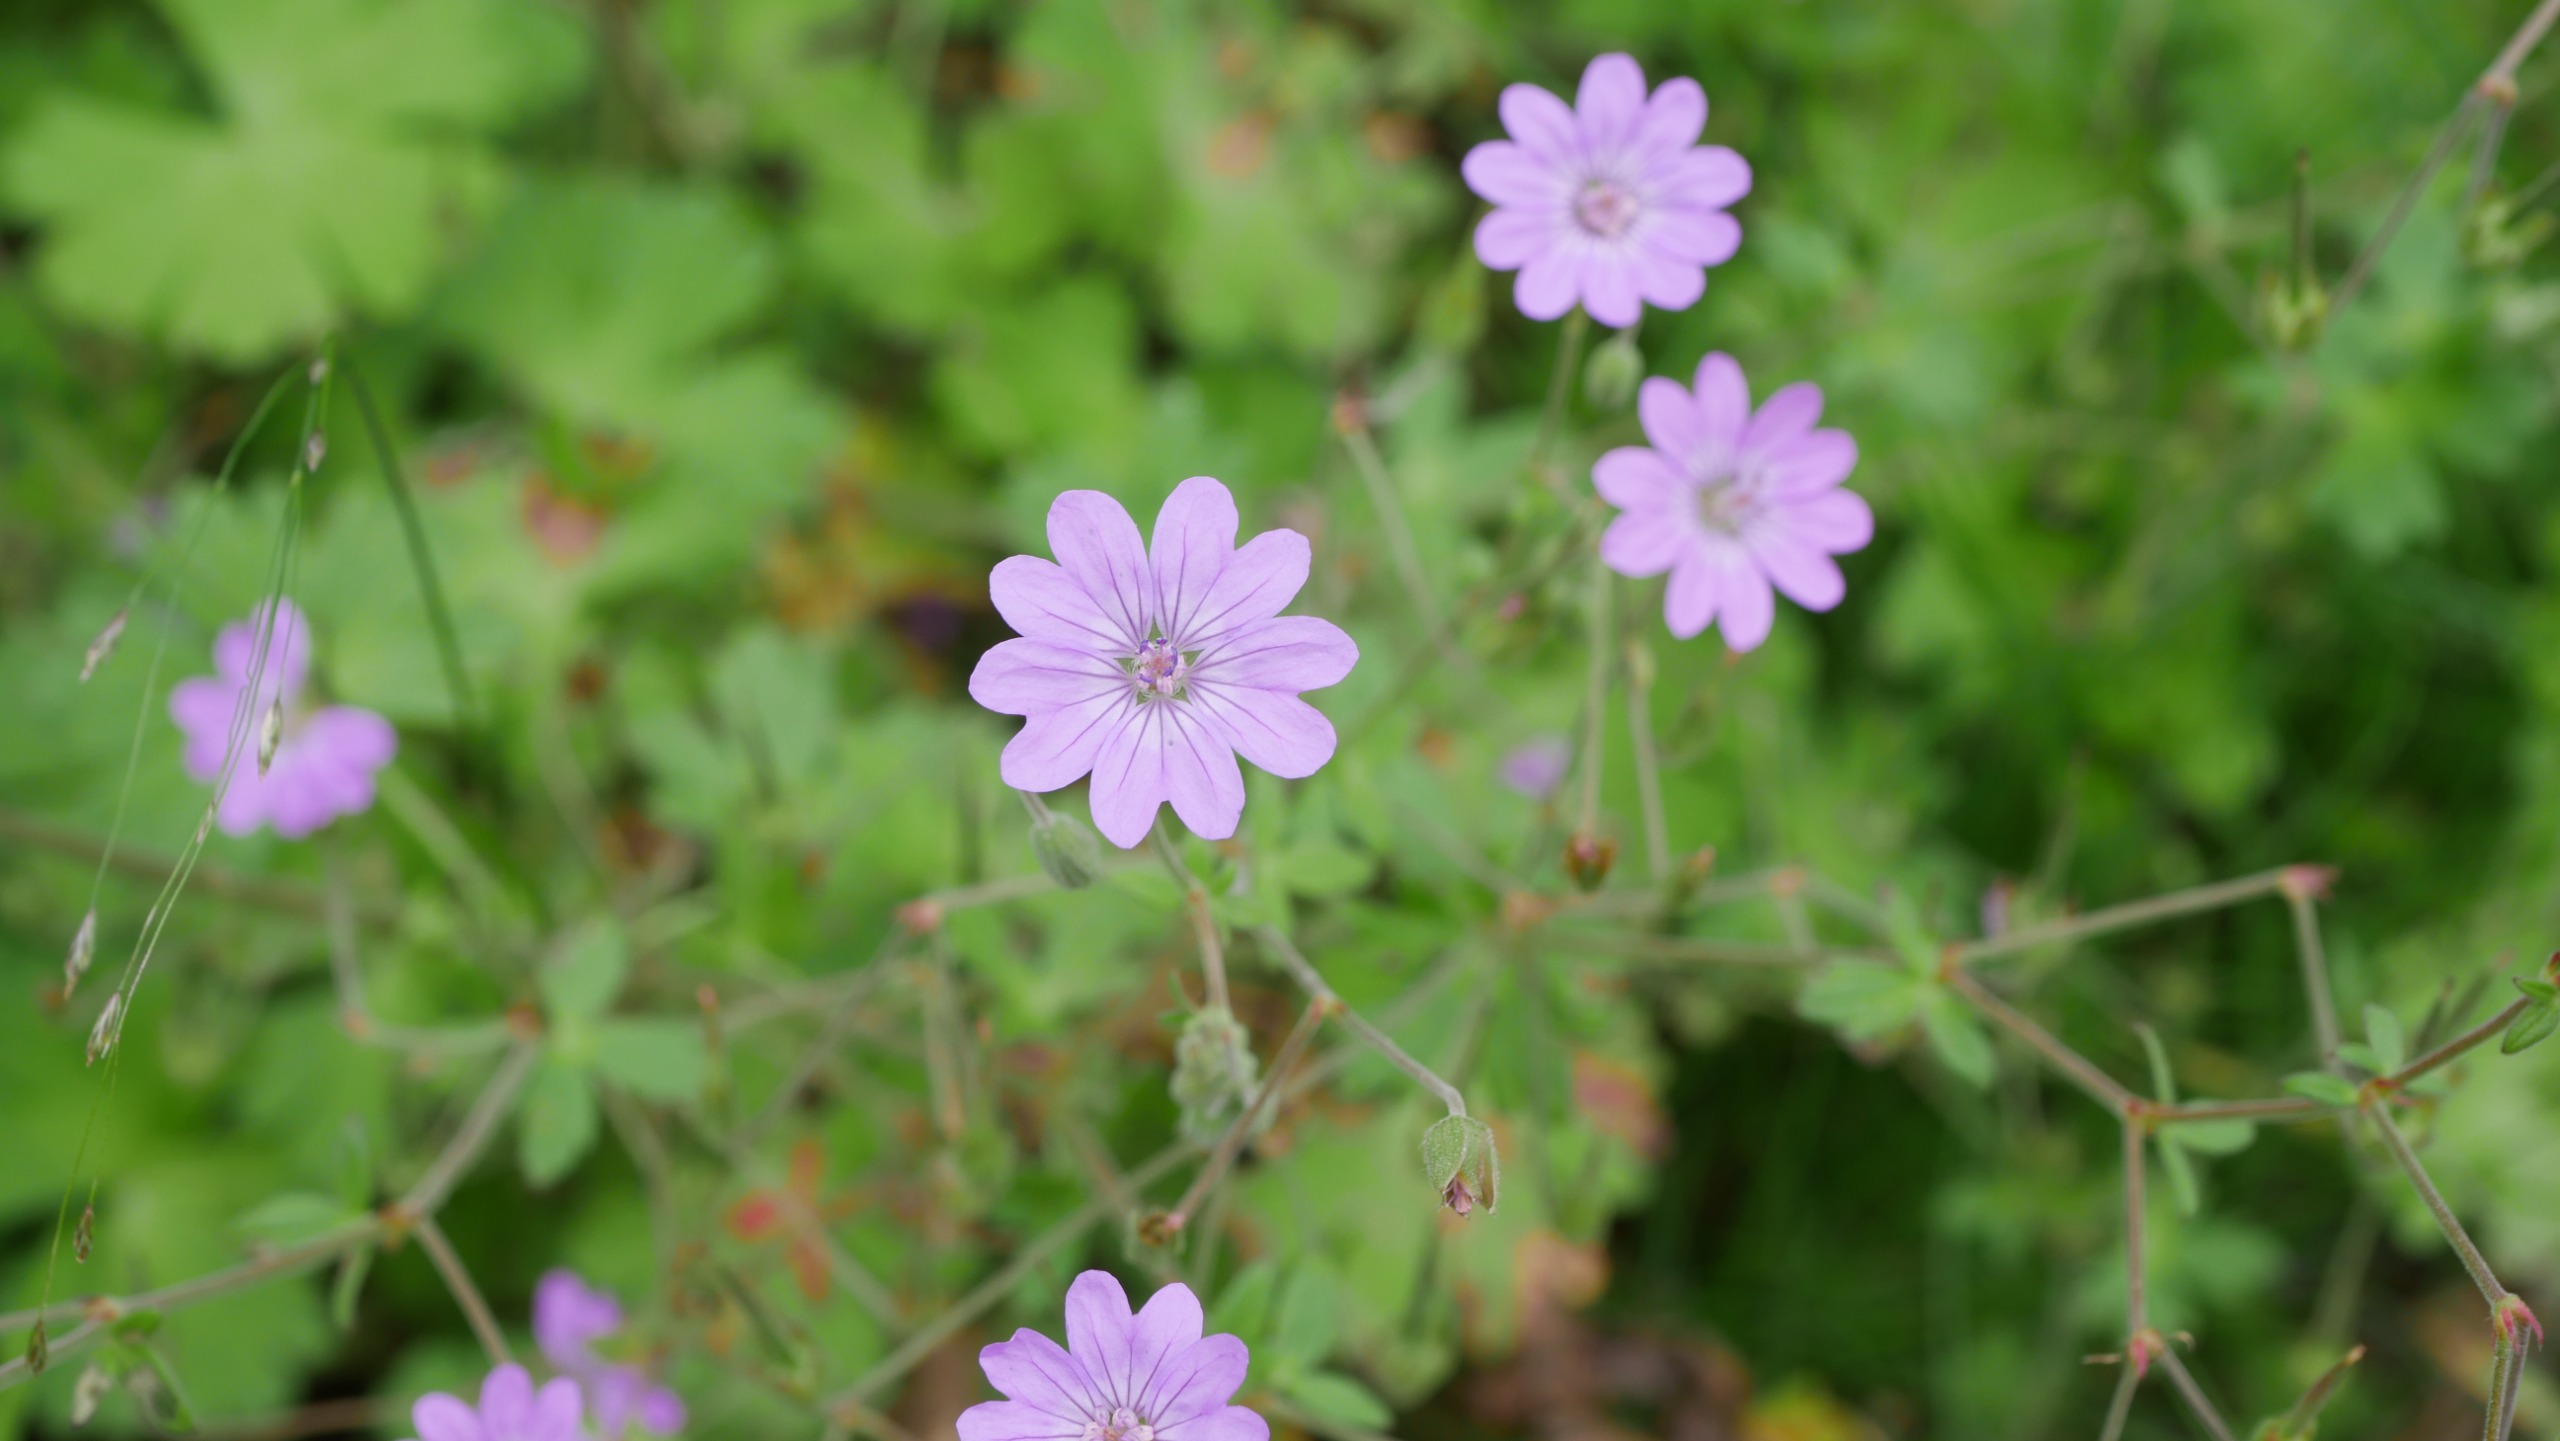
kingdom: Plantae
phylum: Tracheophyta
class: Magnoliopsida
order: Geraniales
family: Geraniaceae
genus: Geranium
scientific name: Geranium pyrenaicum
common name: Pyrenæisk storkenæb
